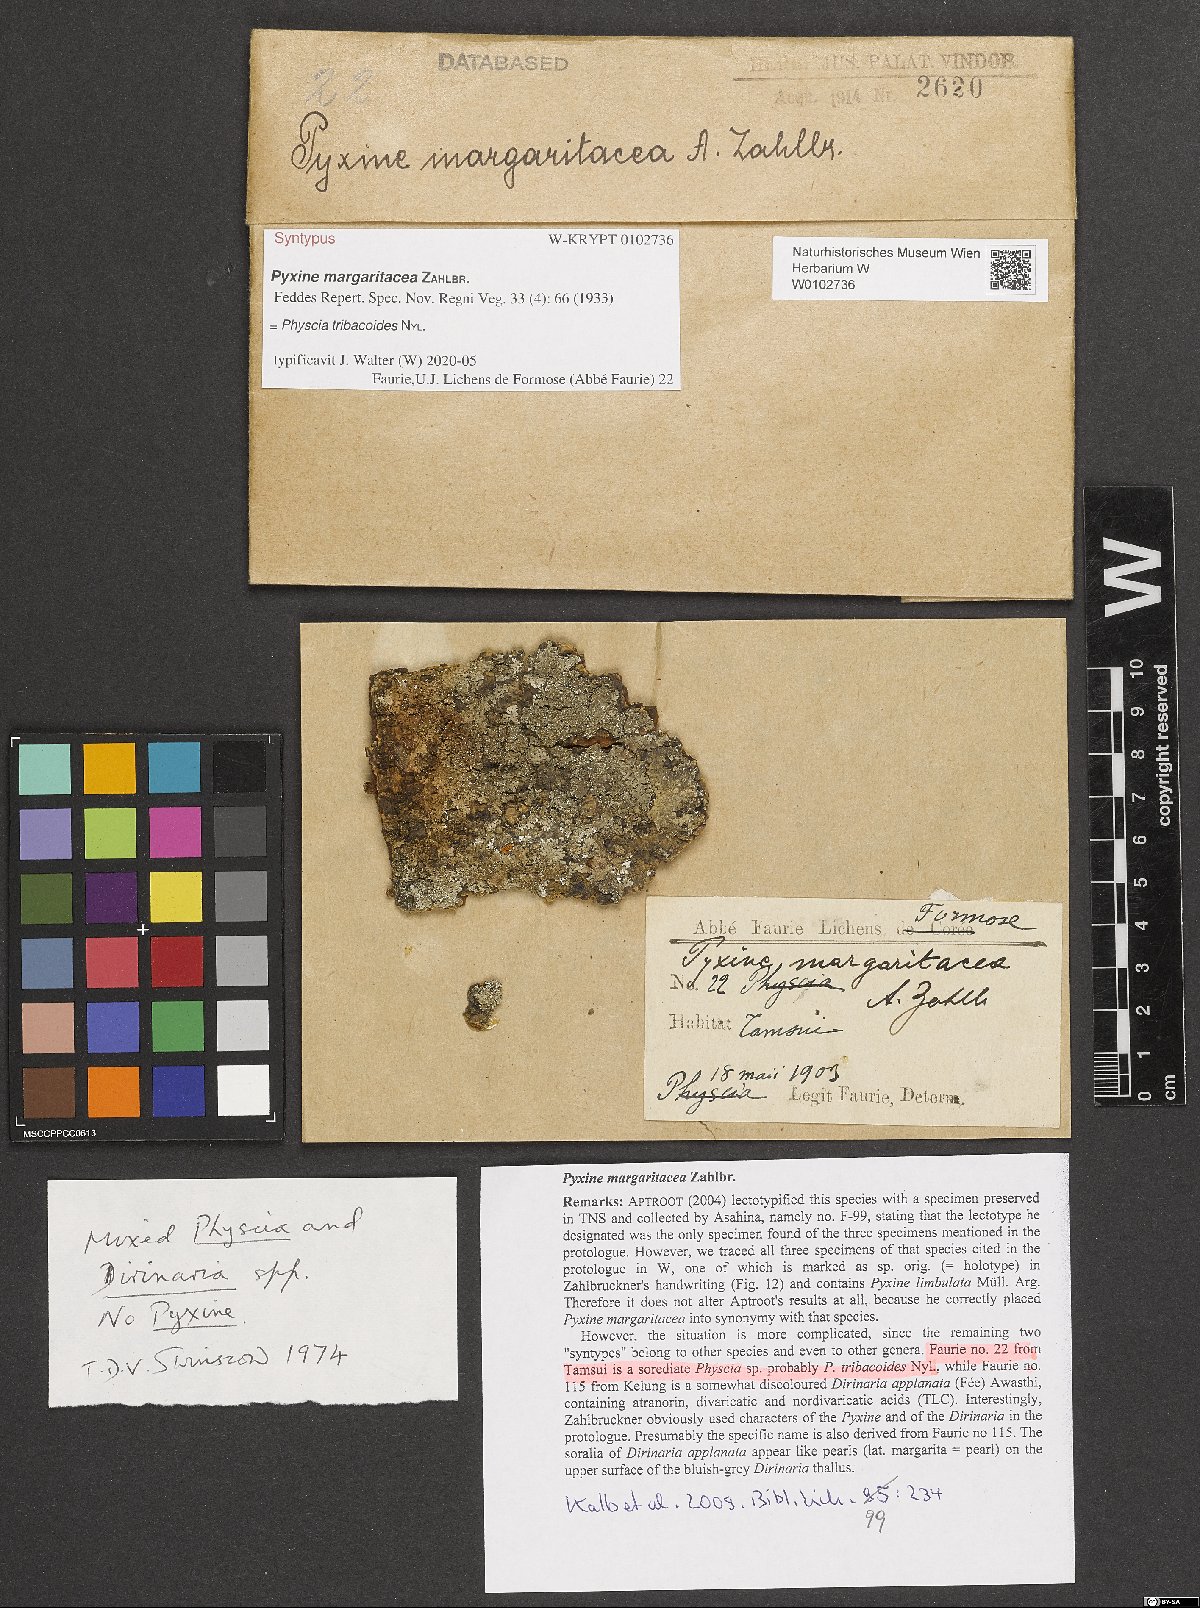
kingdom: Fungi
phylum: Ascomycota
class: Lecanoromycetes
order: Caliciales
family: Caliciaceae
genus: Pyxine
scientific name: Pyxine margaritacea
